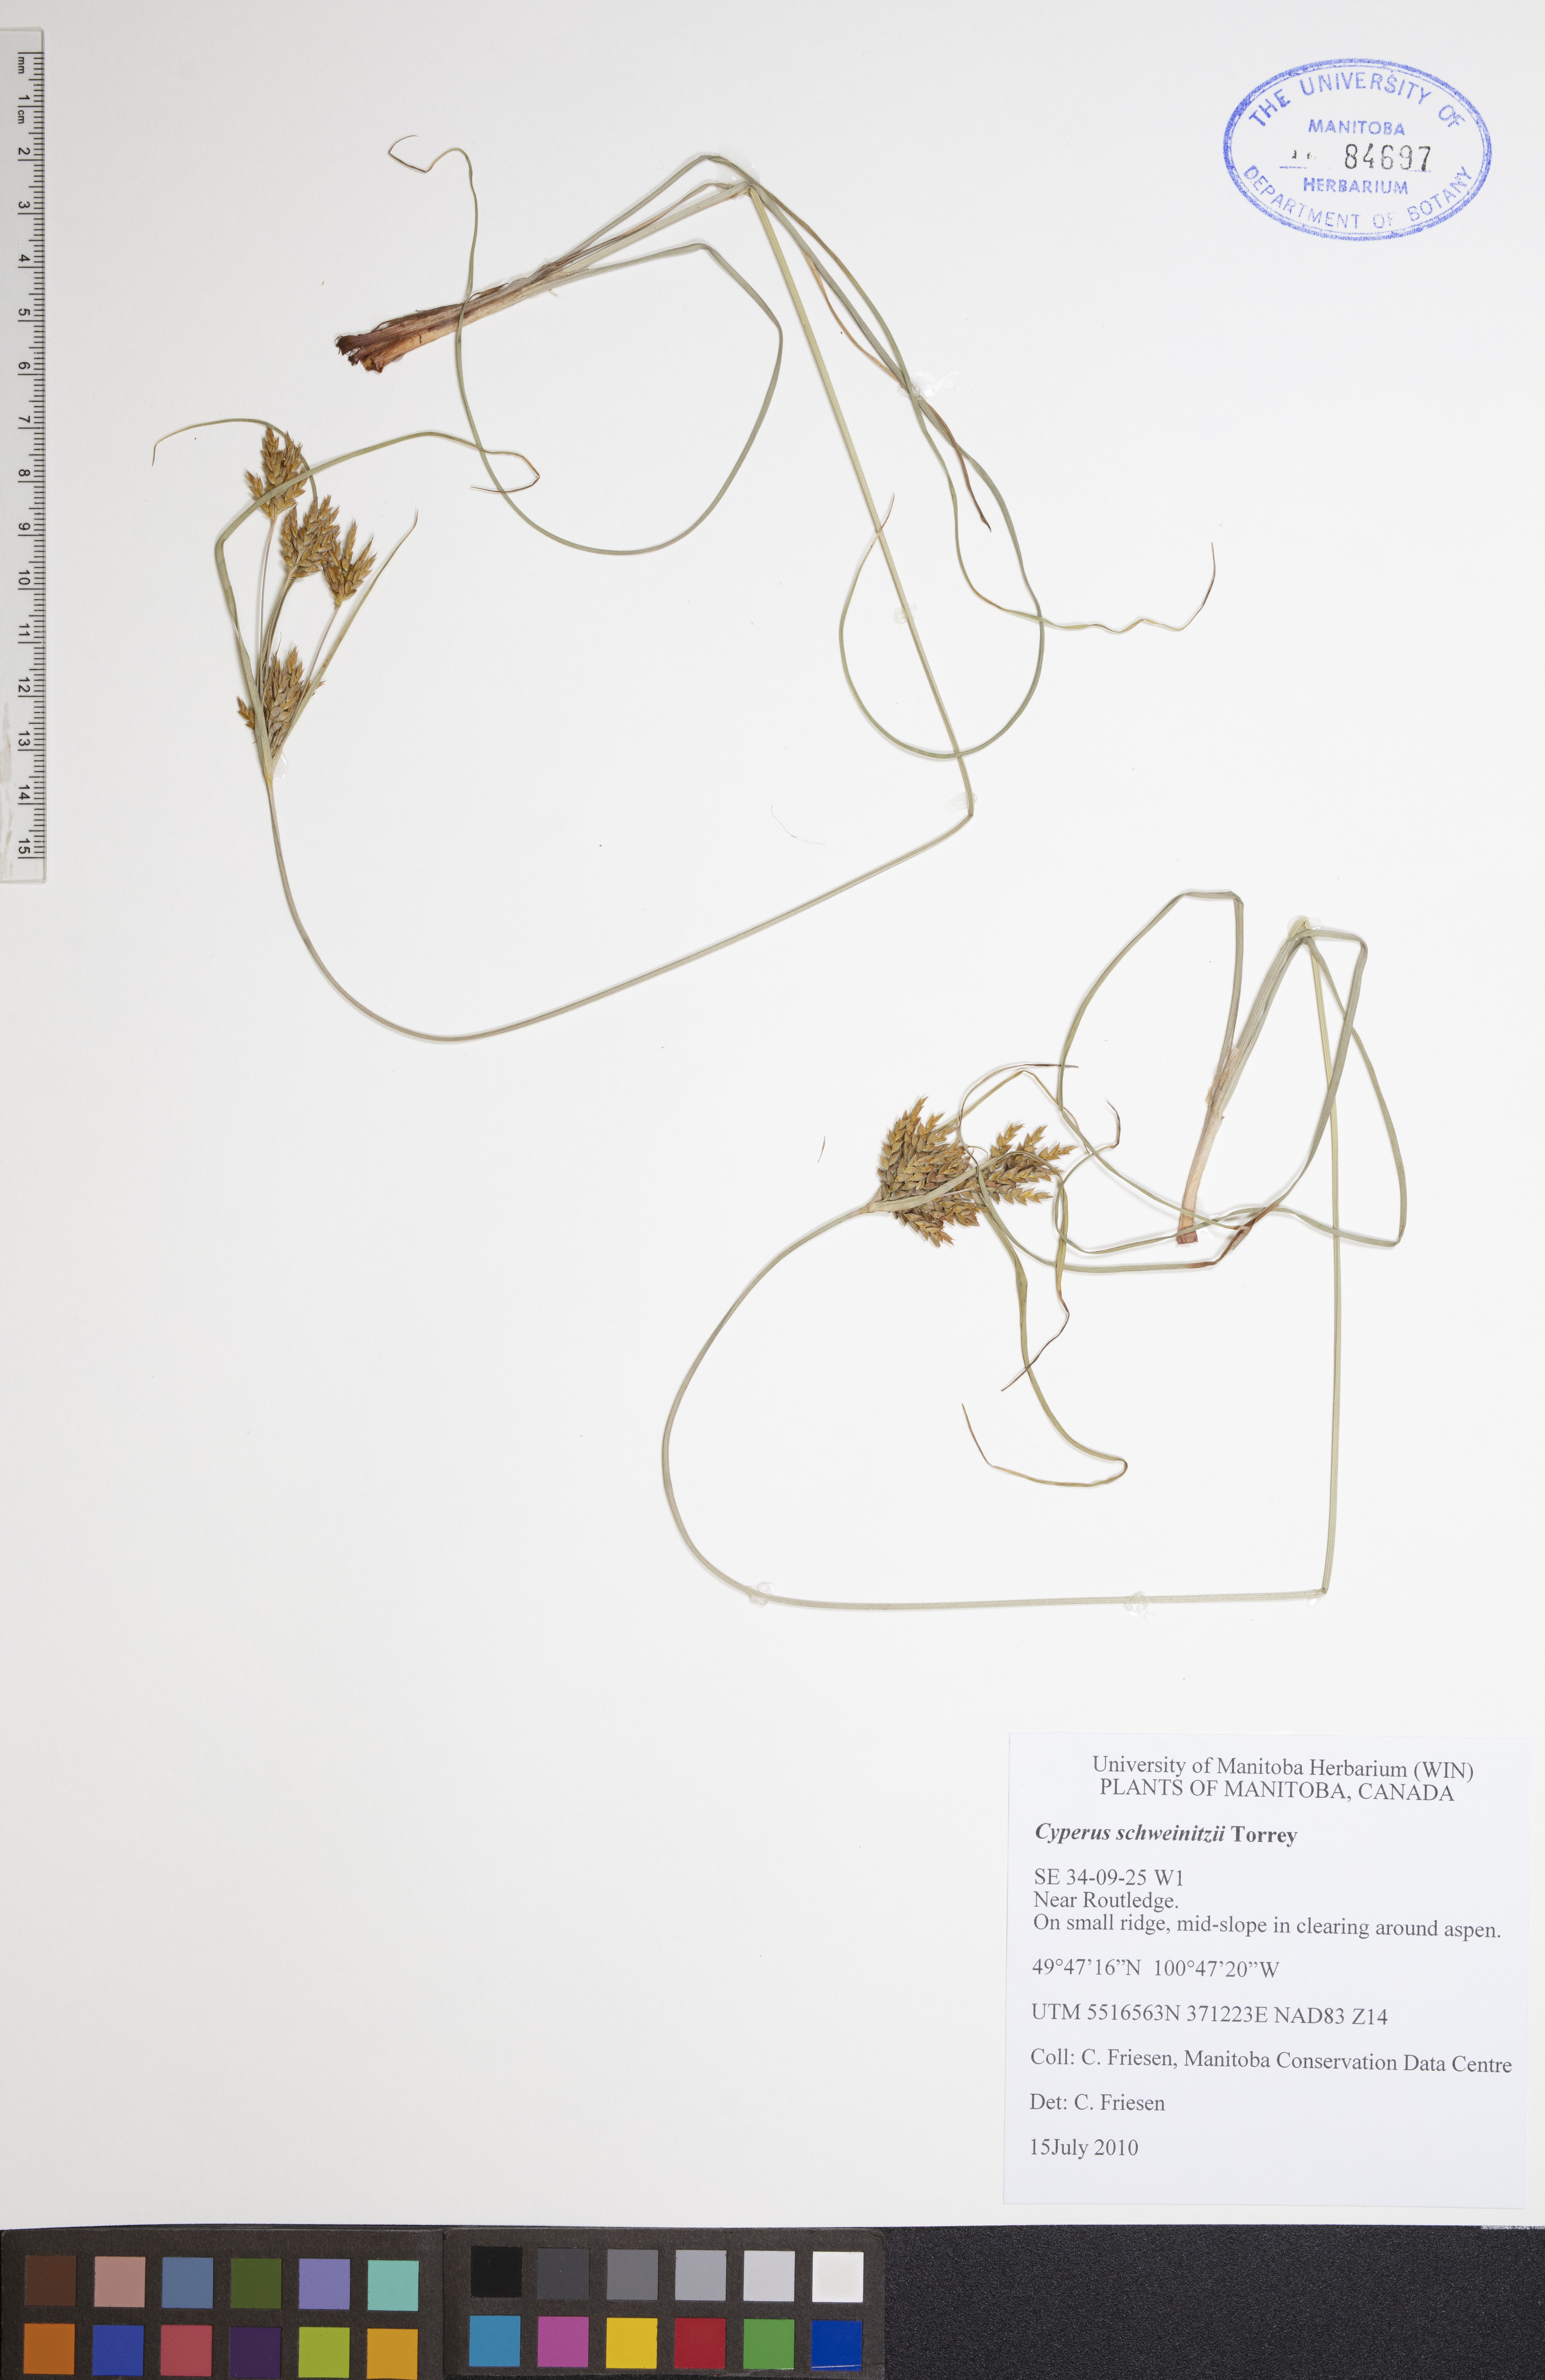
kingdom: Plantae
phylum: Tracheophyta
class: Liliopsida
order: Poales
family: Cyperaceae
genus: Cyperus
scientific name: Cyperus schweinitzii
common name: Schweinitz's cyperus
